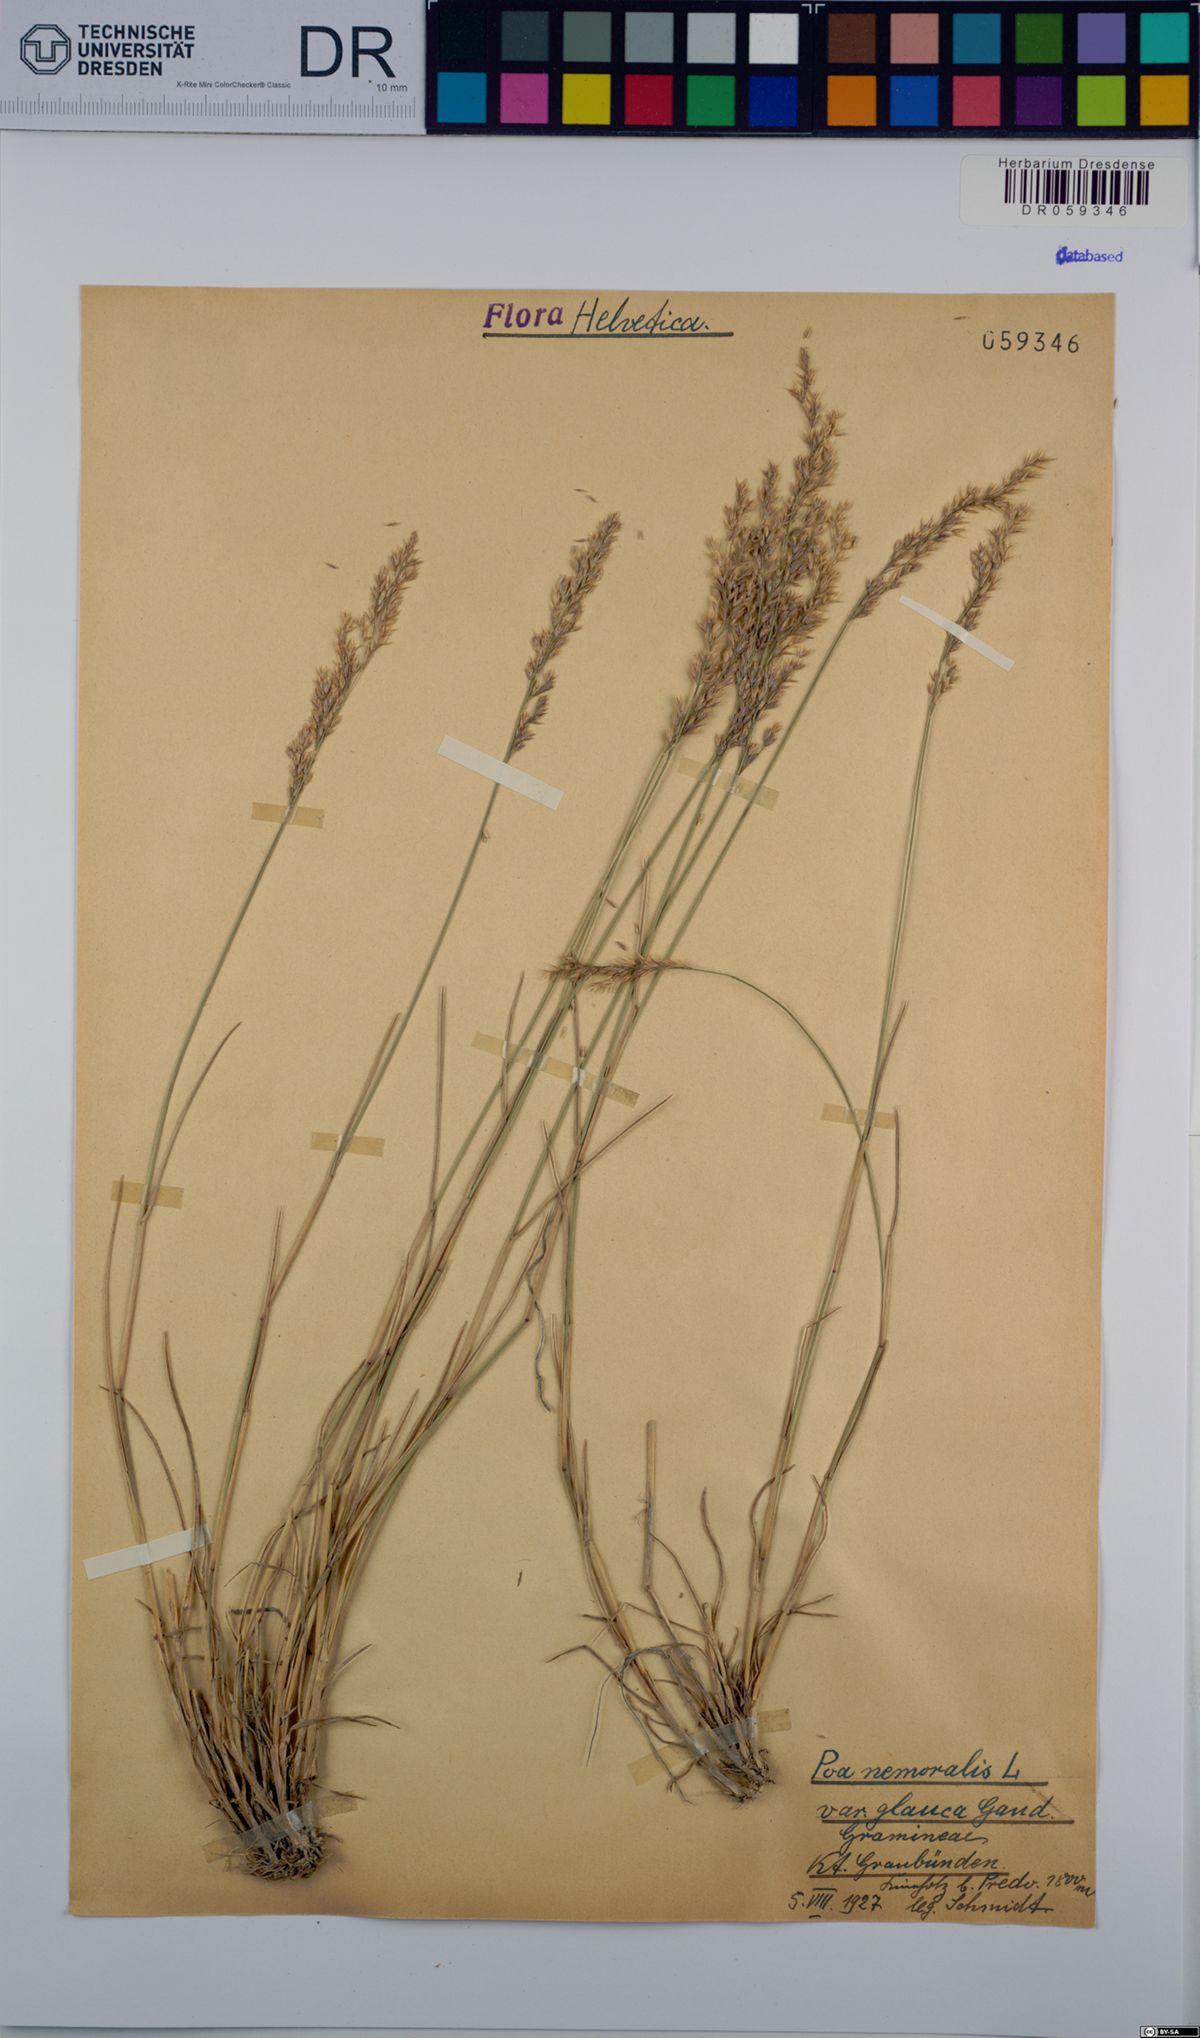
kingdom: Plantae
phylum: Tracheophyta
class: Liliopsida
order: Poales
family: Poaceae
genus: Poa
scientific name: Poa nemoralis
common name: Wood bluegrass
